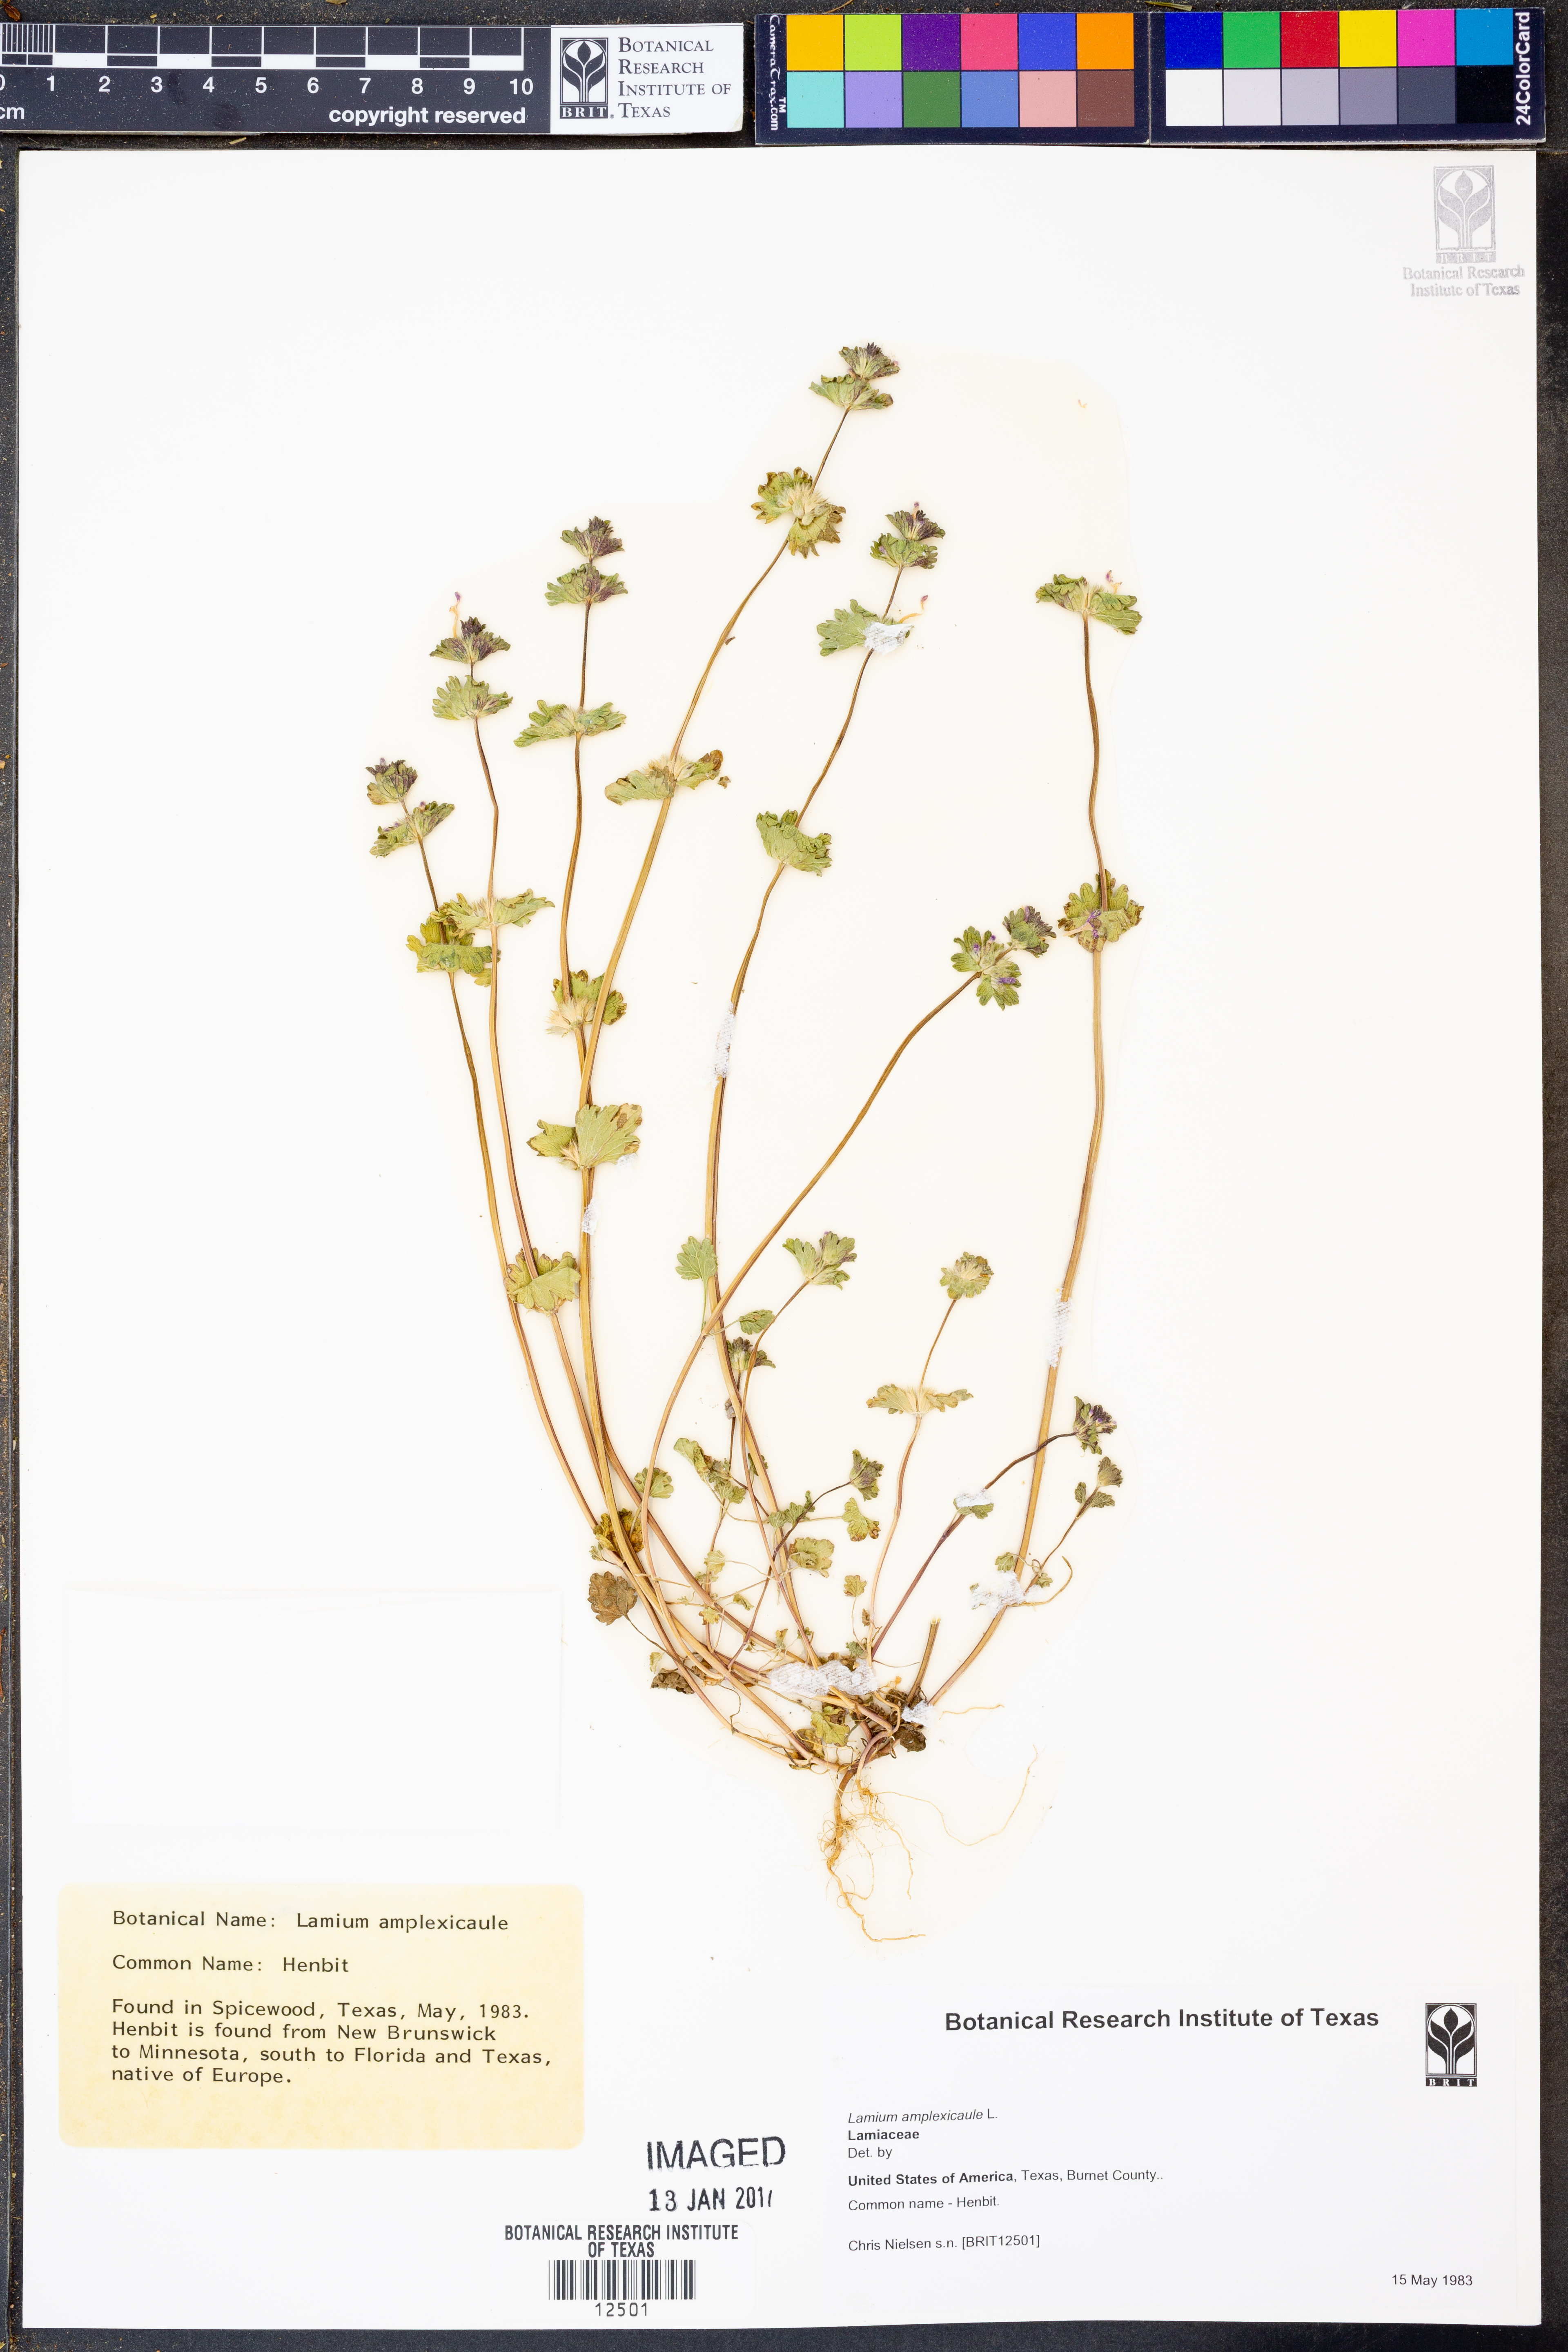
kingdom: Plantae
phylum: Tracheophyta
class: Magnoliopsida
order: Lamiales
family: Lamiaceae
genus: Lamium
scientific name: Lamium amplexicaule
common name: Henbit dead-nettle
